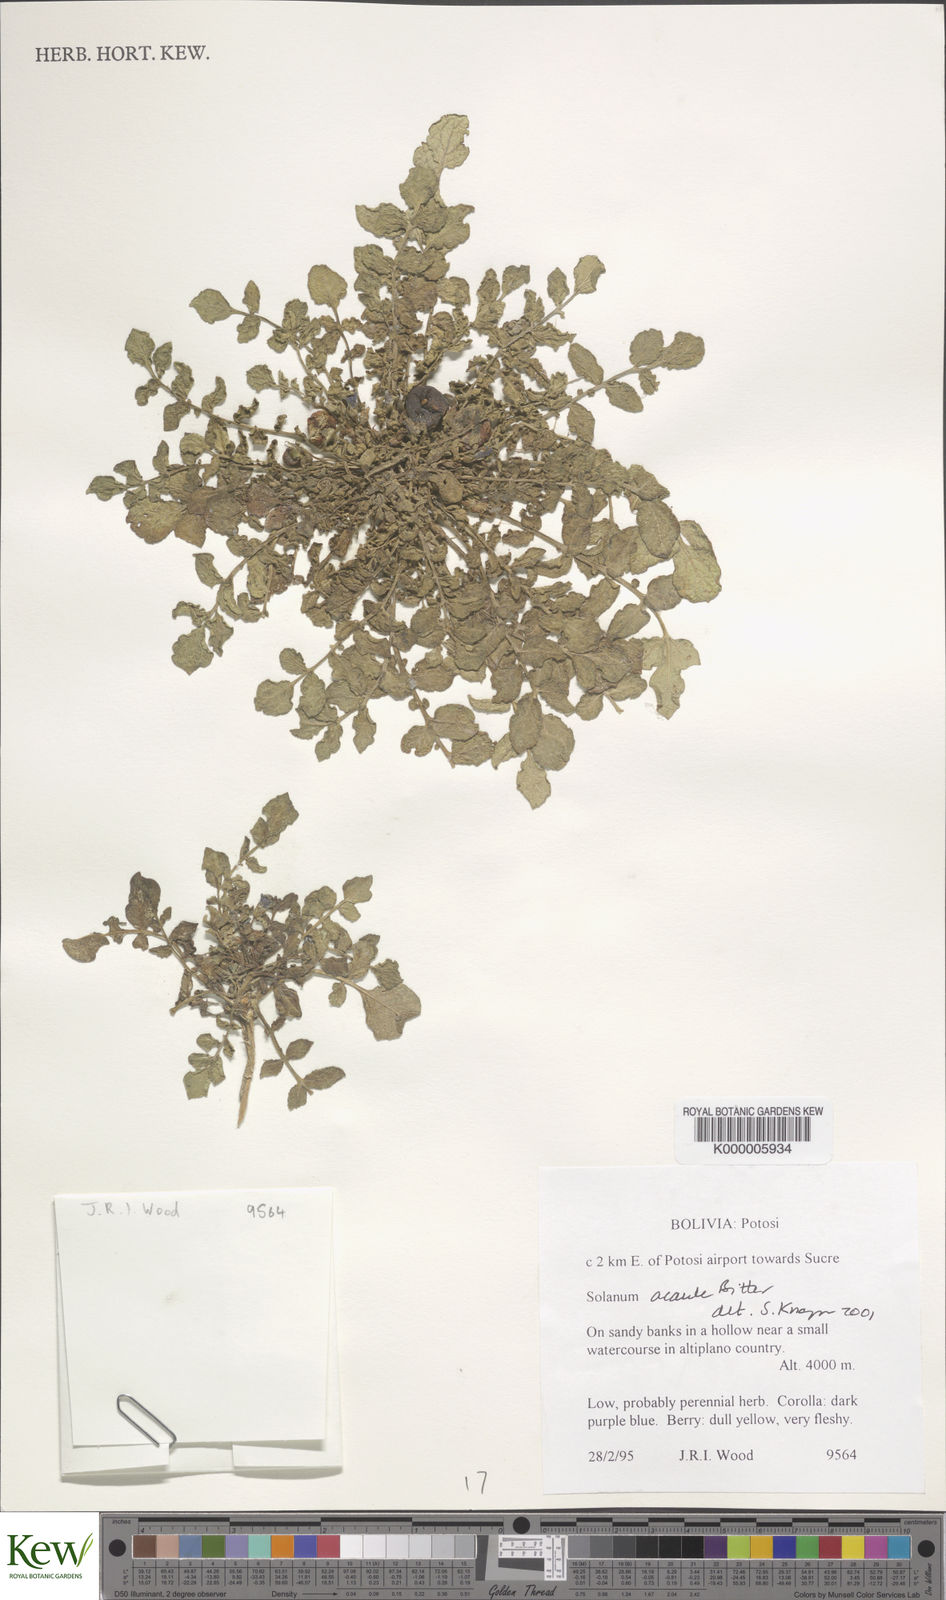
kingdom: Plantae
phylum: Tracheophyta
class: Magnoliopsida
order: Solanales
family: Solanaceae
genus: Solanum
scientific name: Solanum acaule
